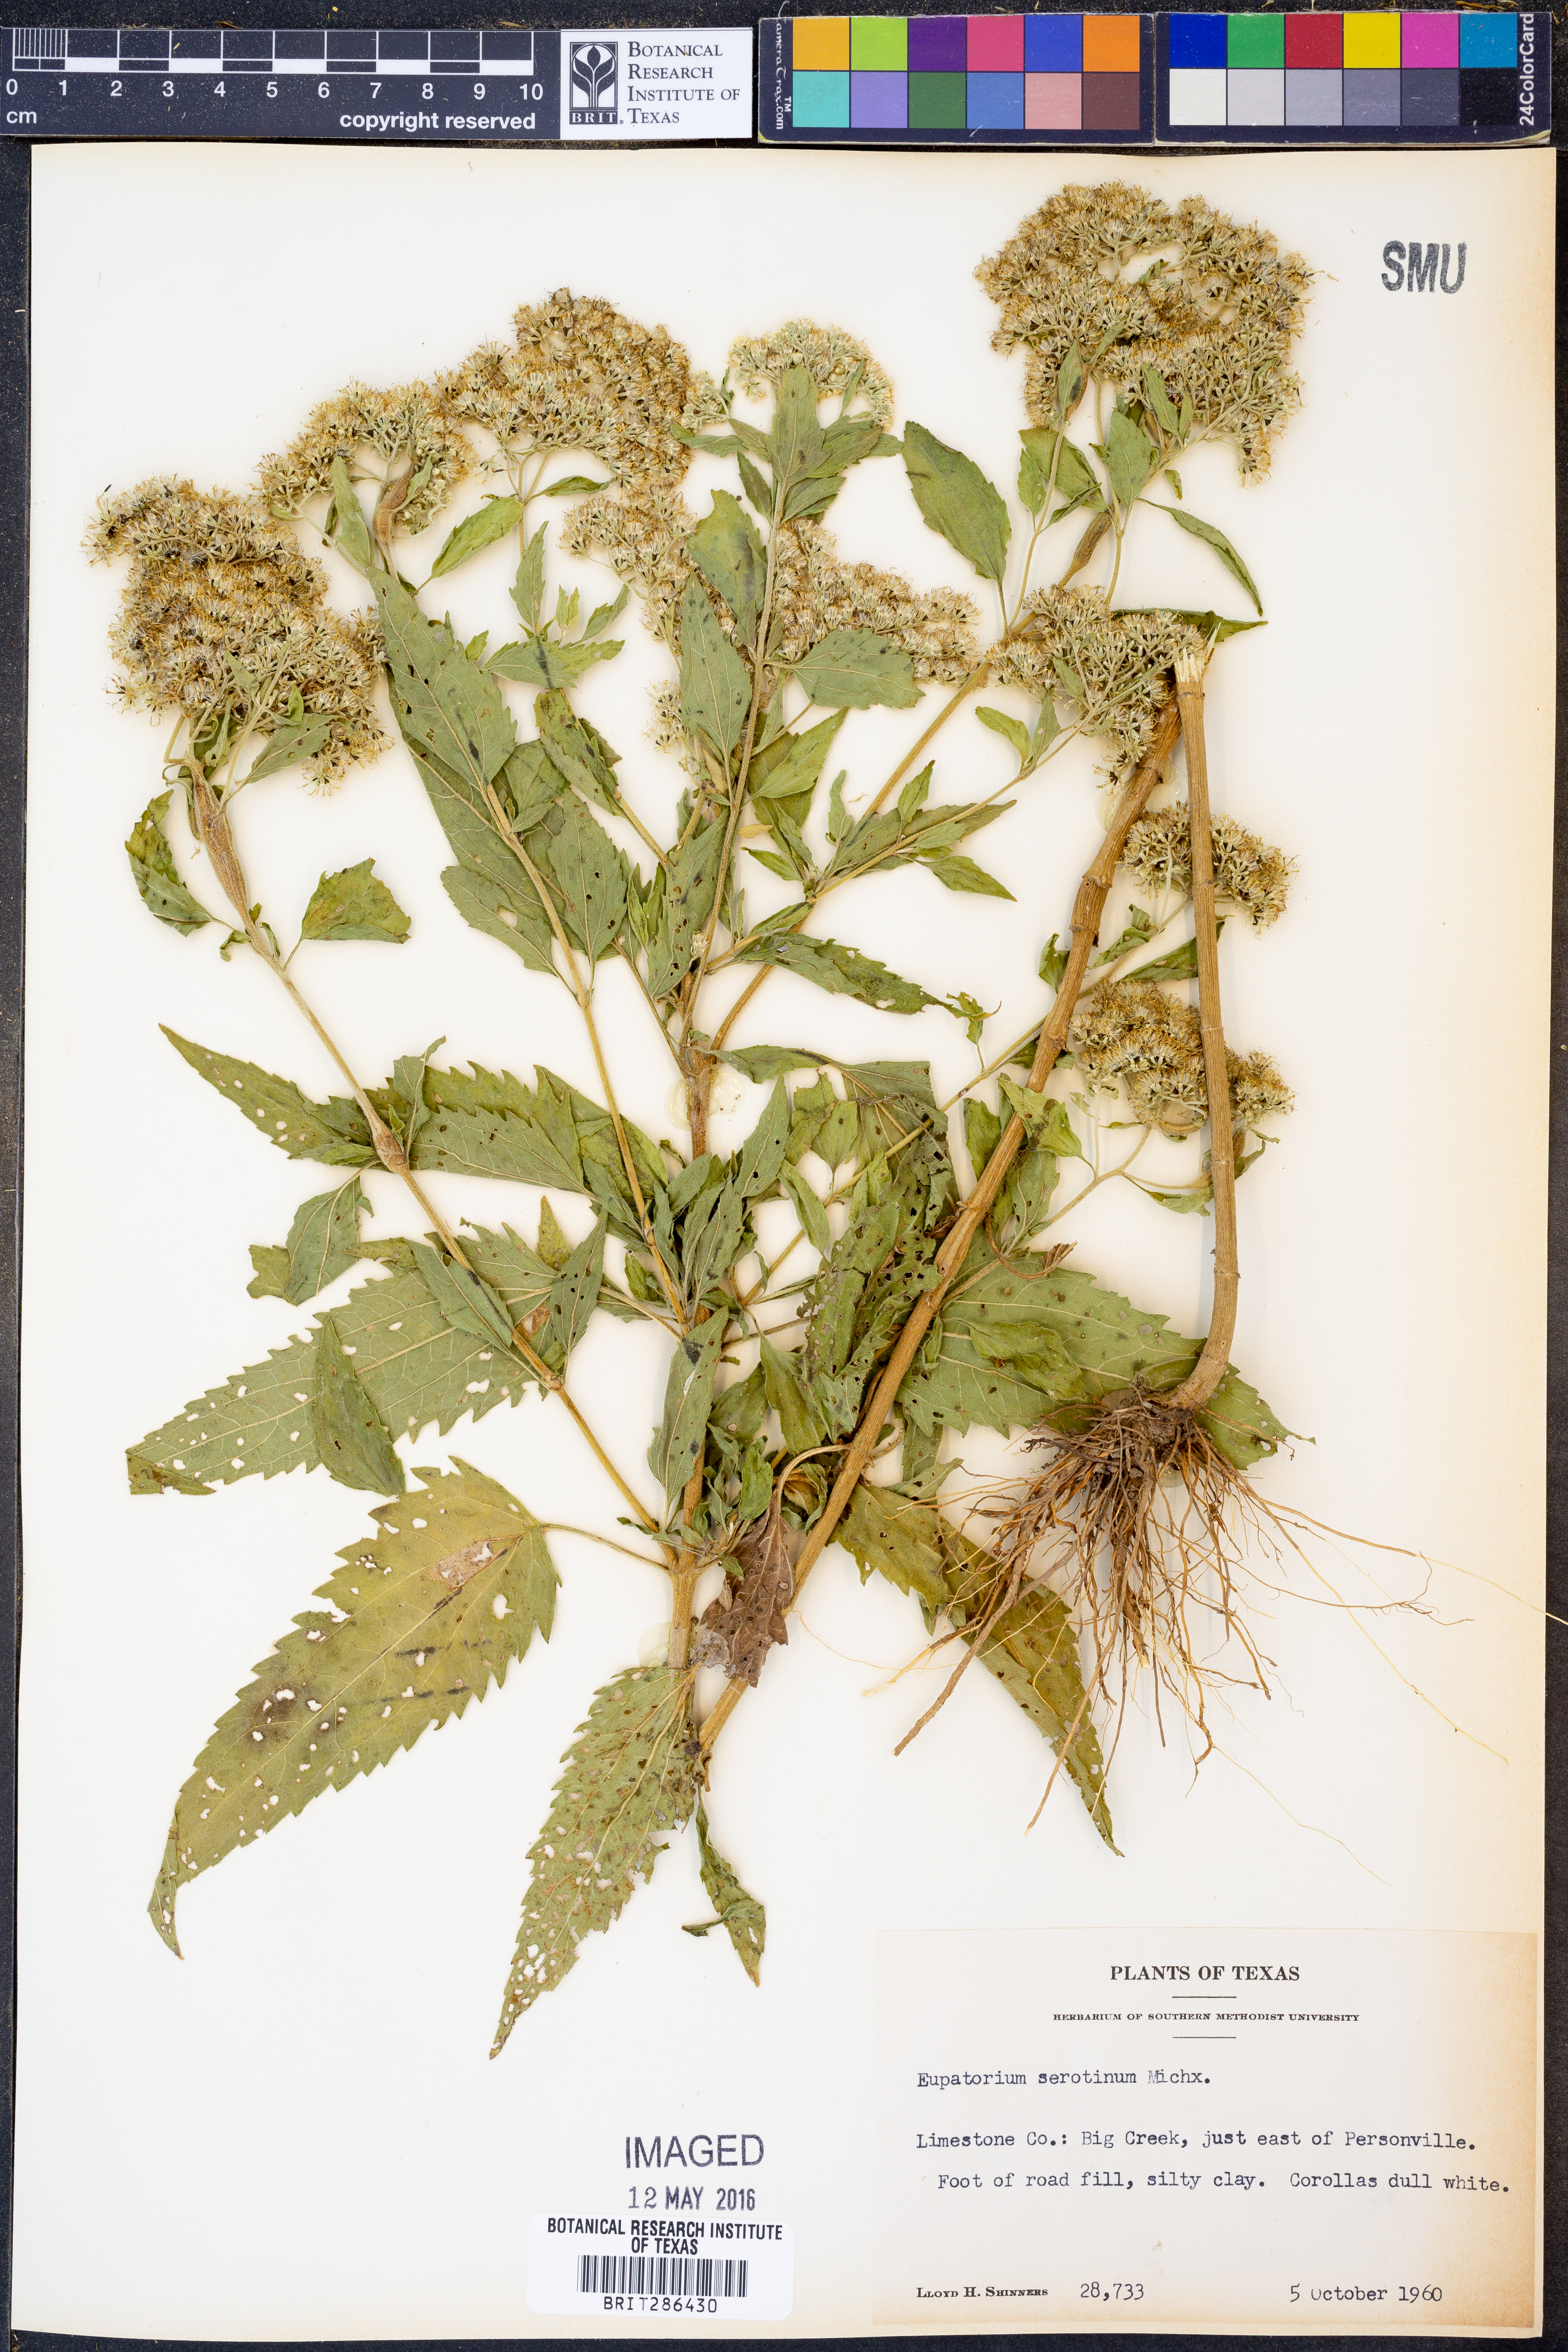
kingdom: Plantae
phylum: Tracheophyta
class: Magnoliopsida
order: Asterales
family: Asteraceae
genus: Eupatorium
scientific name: Eupatorium serotinum
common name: Late boneset
